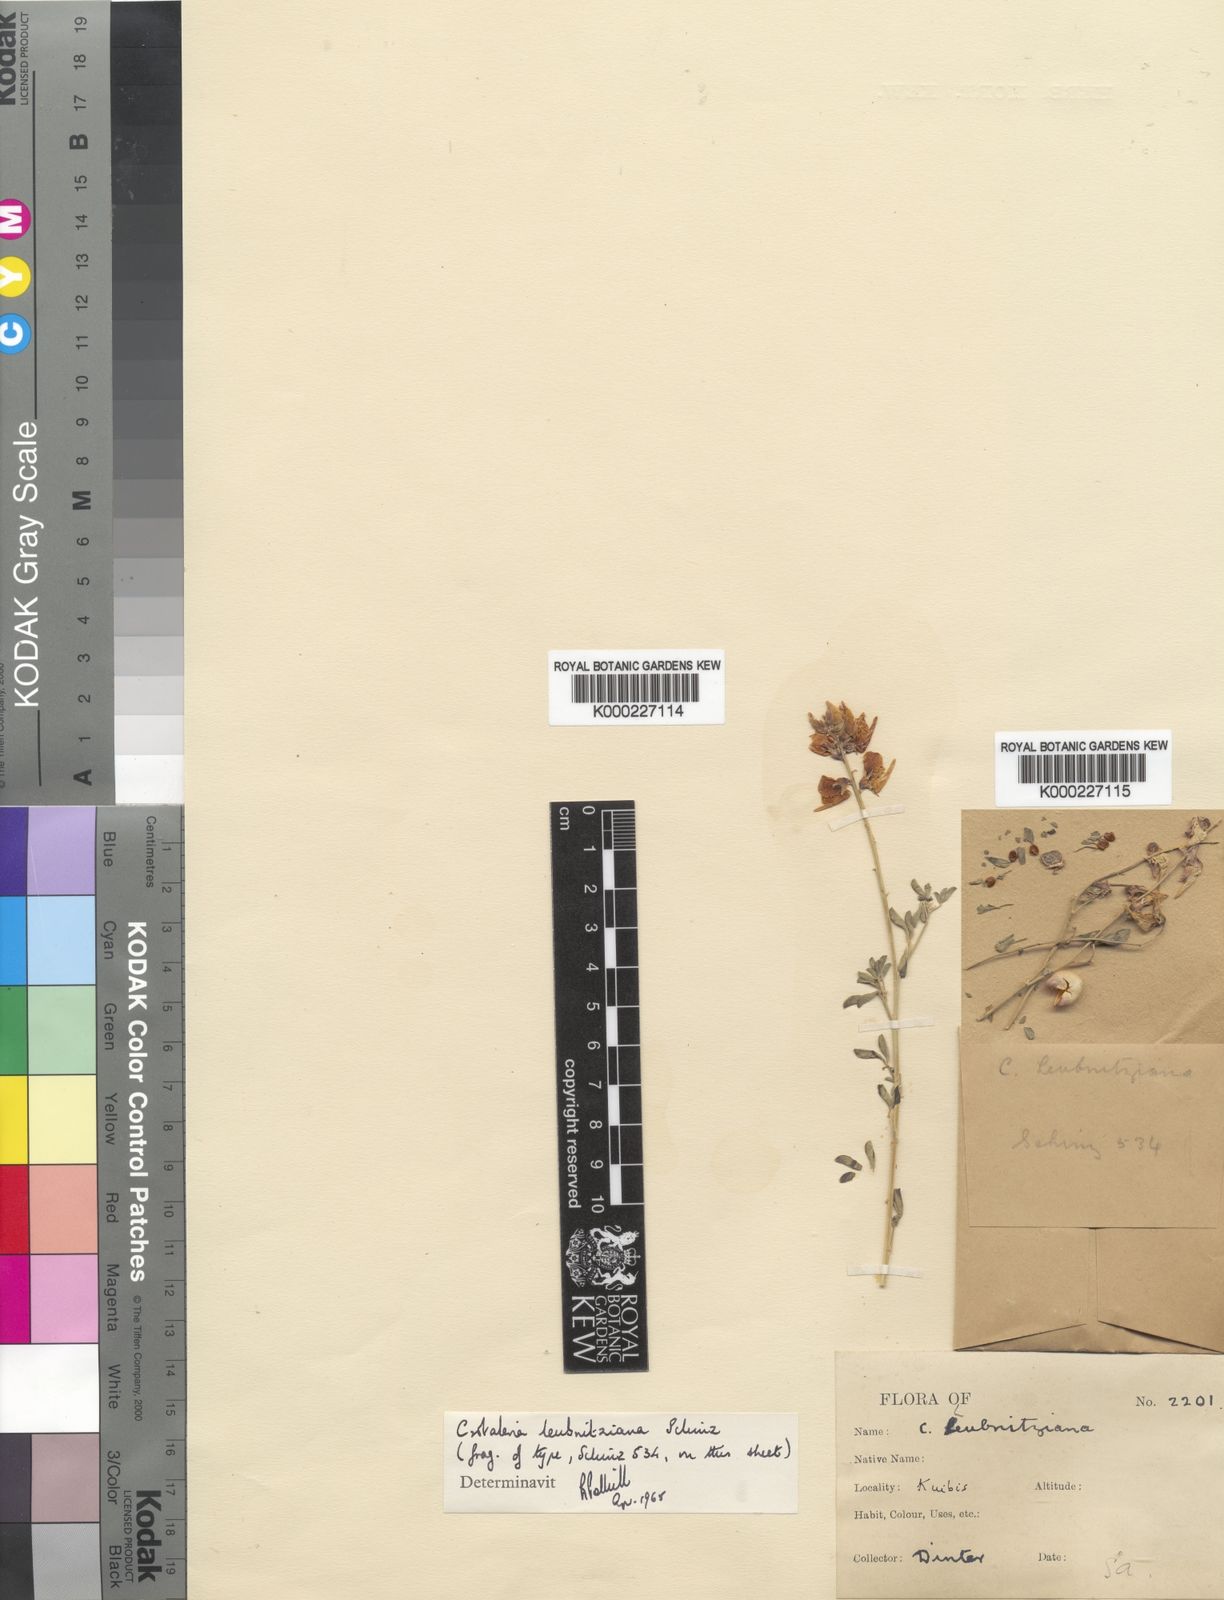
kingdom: Plantae
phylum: Tracheophyta
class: Magnoliopsida
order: Fabales
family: Fabaceae
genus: Crotalaria
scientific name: Crotalaria leubnitziana
